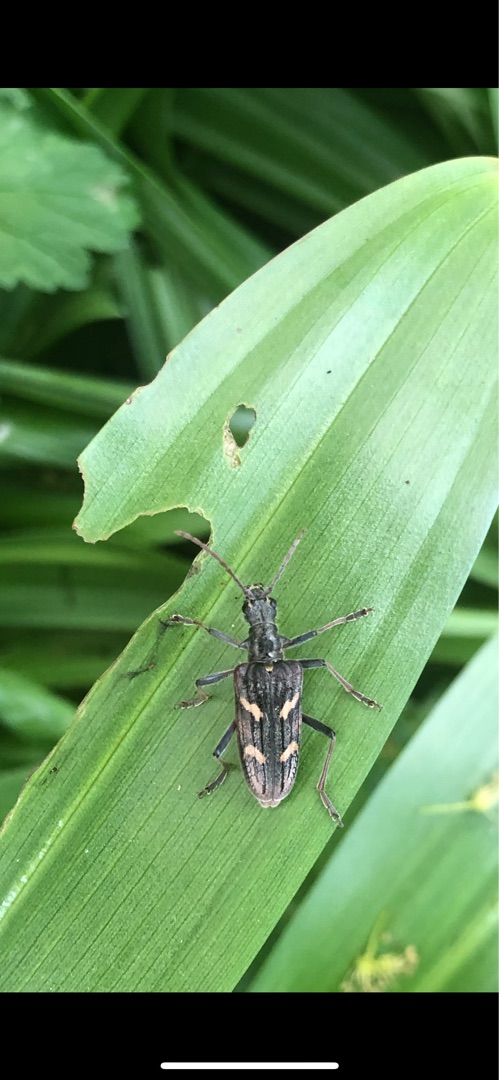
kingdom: Animalia
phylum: Arthropoda
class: Insecta
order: Coleoptera
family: Cerambycidae
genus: Rhagium
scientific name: Rhagium bifasciatum
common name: Båndet tandbuk
